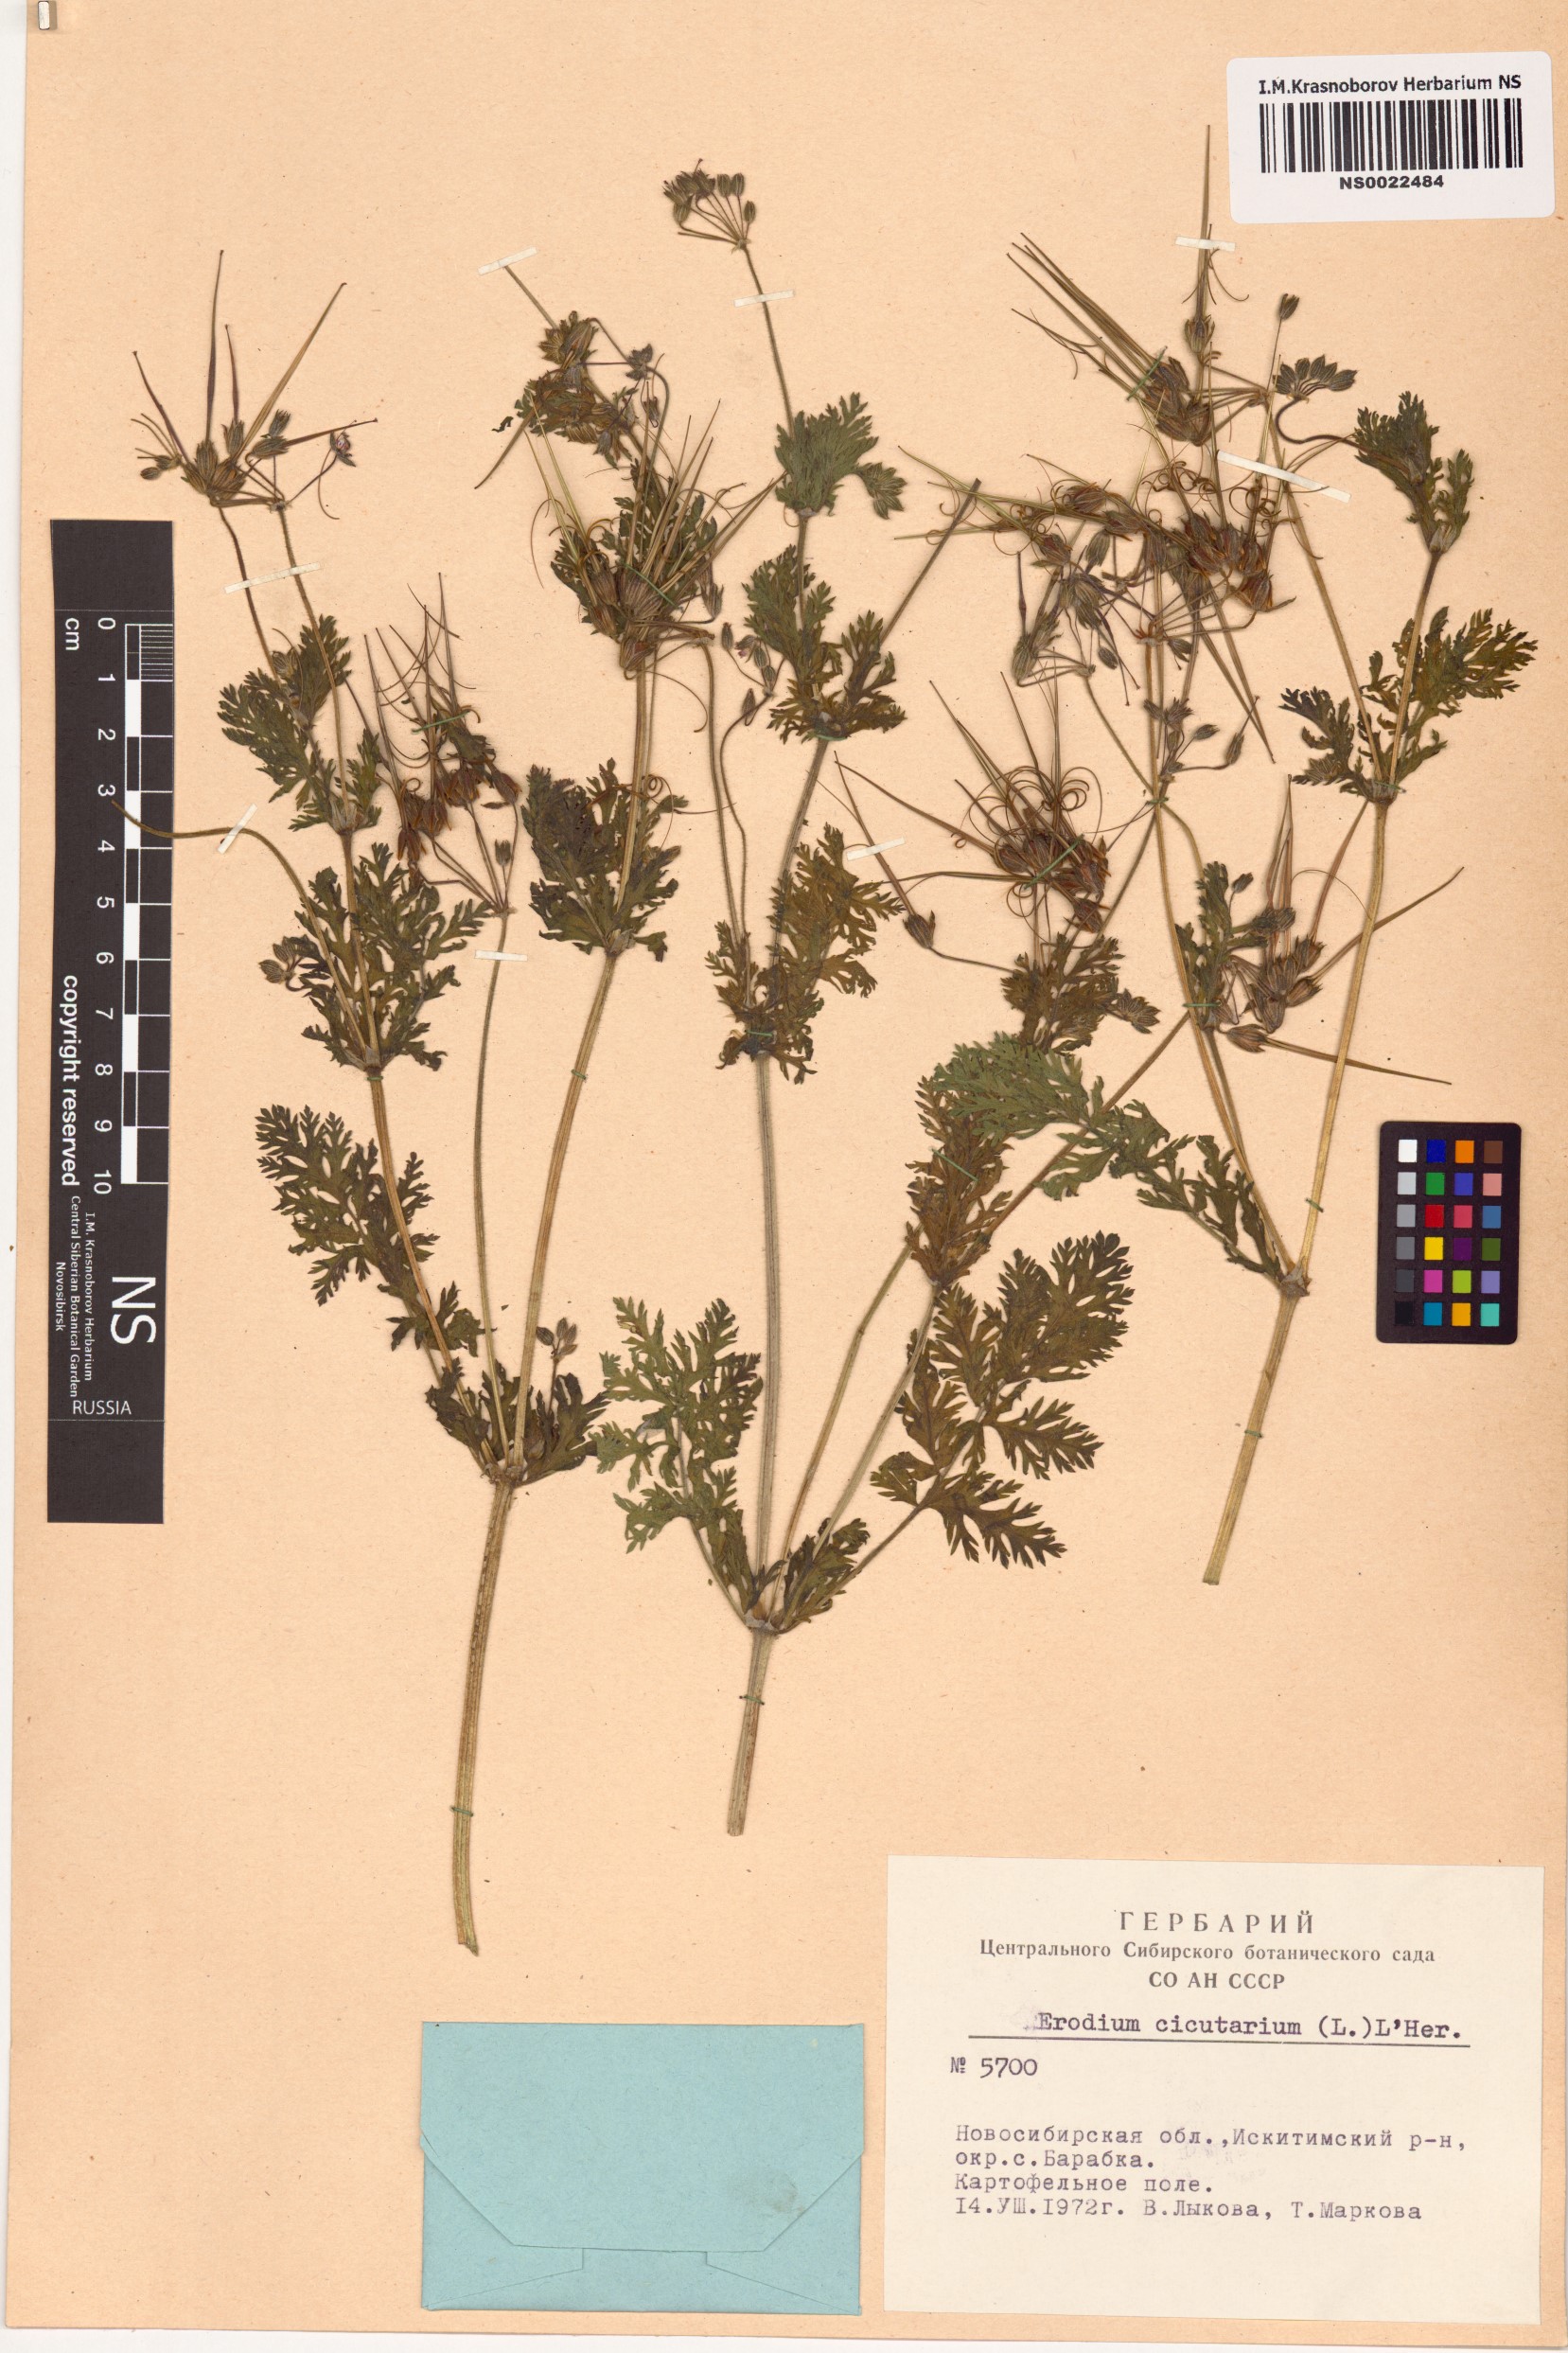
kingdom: Plantae
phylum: Tracheophyta
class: Magnoliopsida
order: Geraniales
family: Geraniaceae
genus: Erodium
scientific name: Erodium cicutarium
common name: Common stork's-bill
